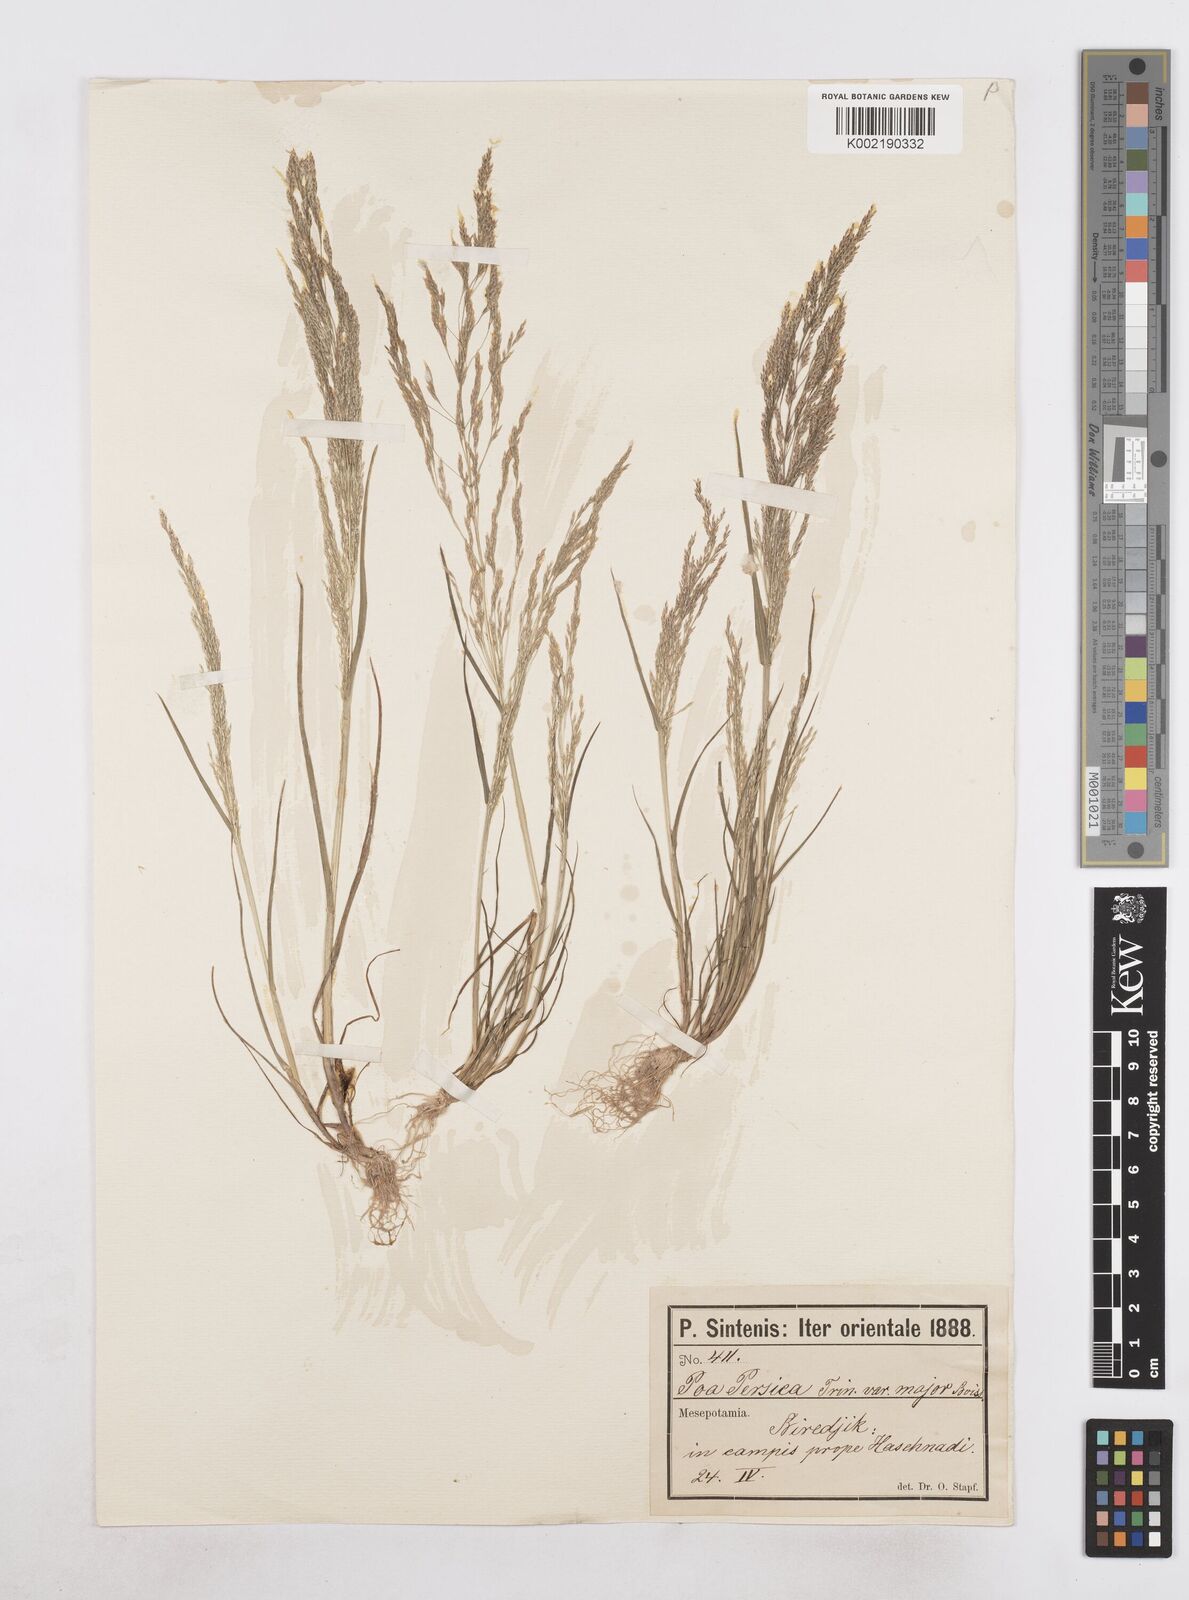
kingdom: Plantae
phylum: Tracheophyta
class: Liliopsida
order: Poales
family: Poaceae
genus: Poa
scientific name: Poa persica
